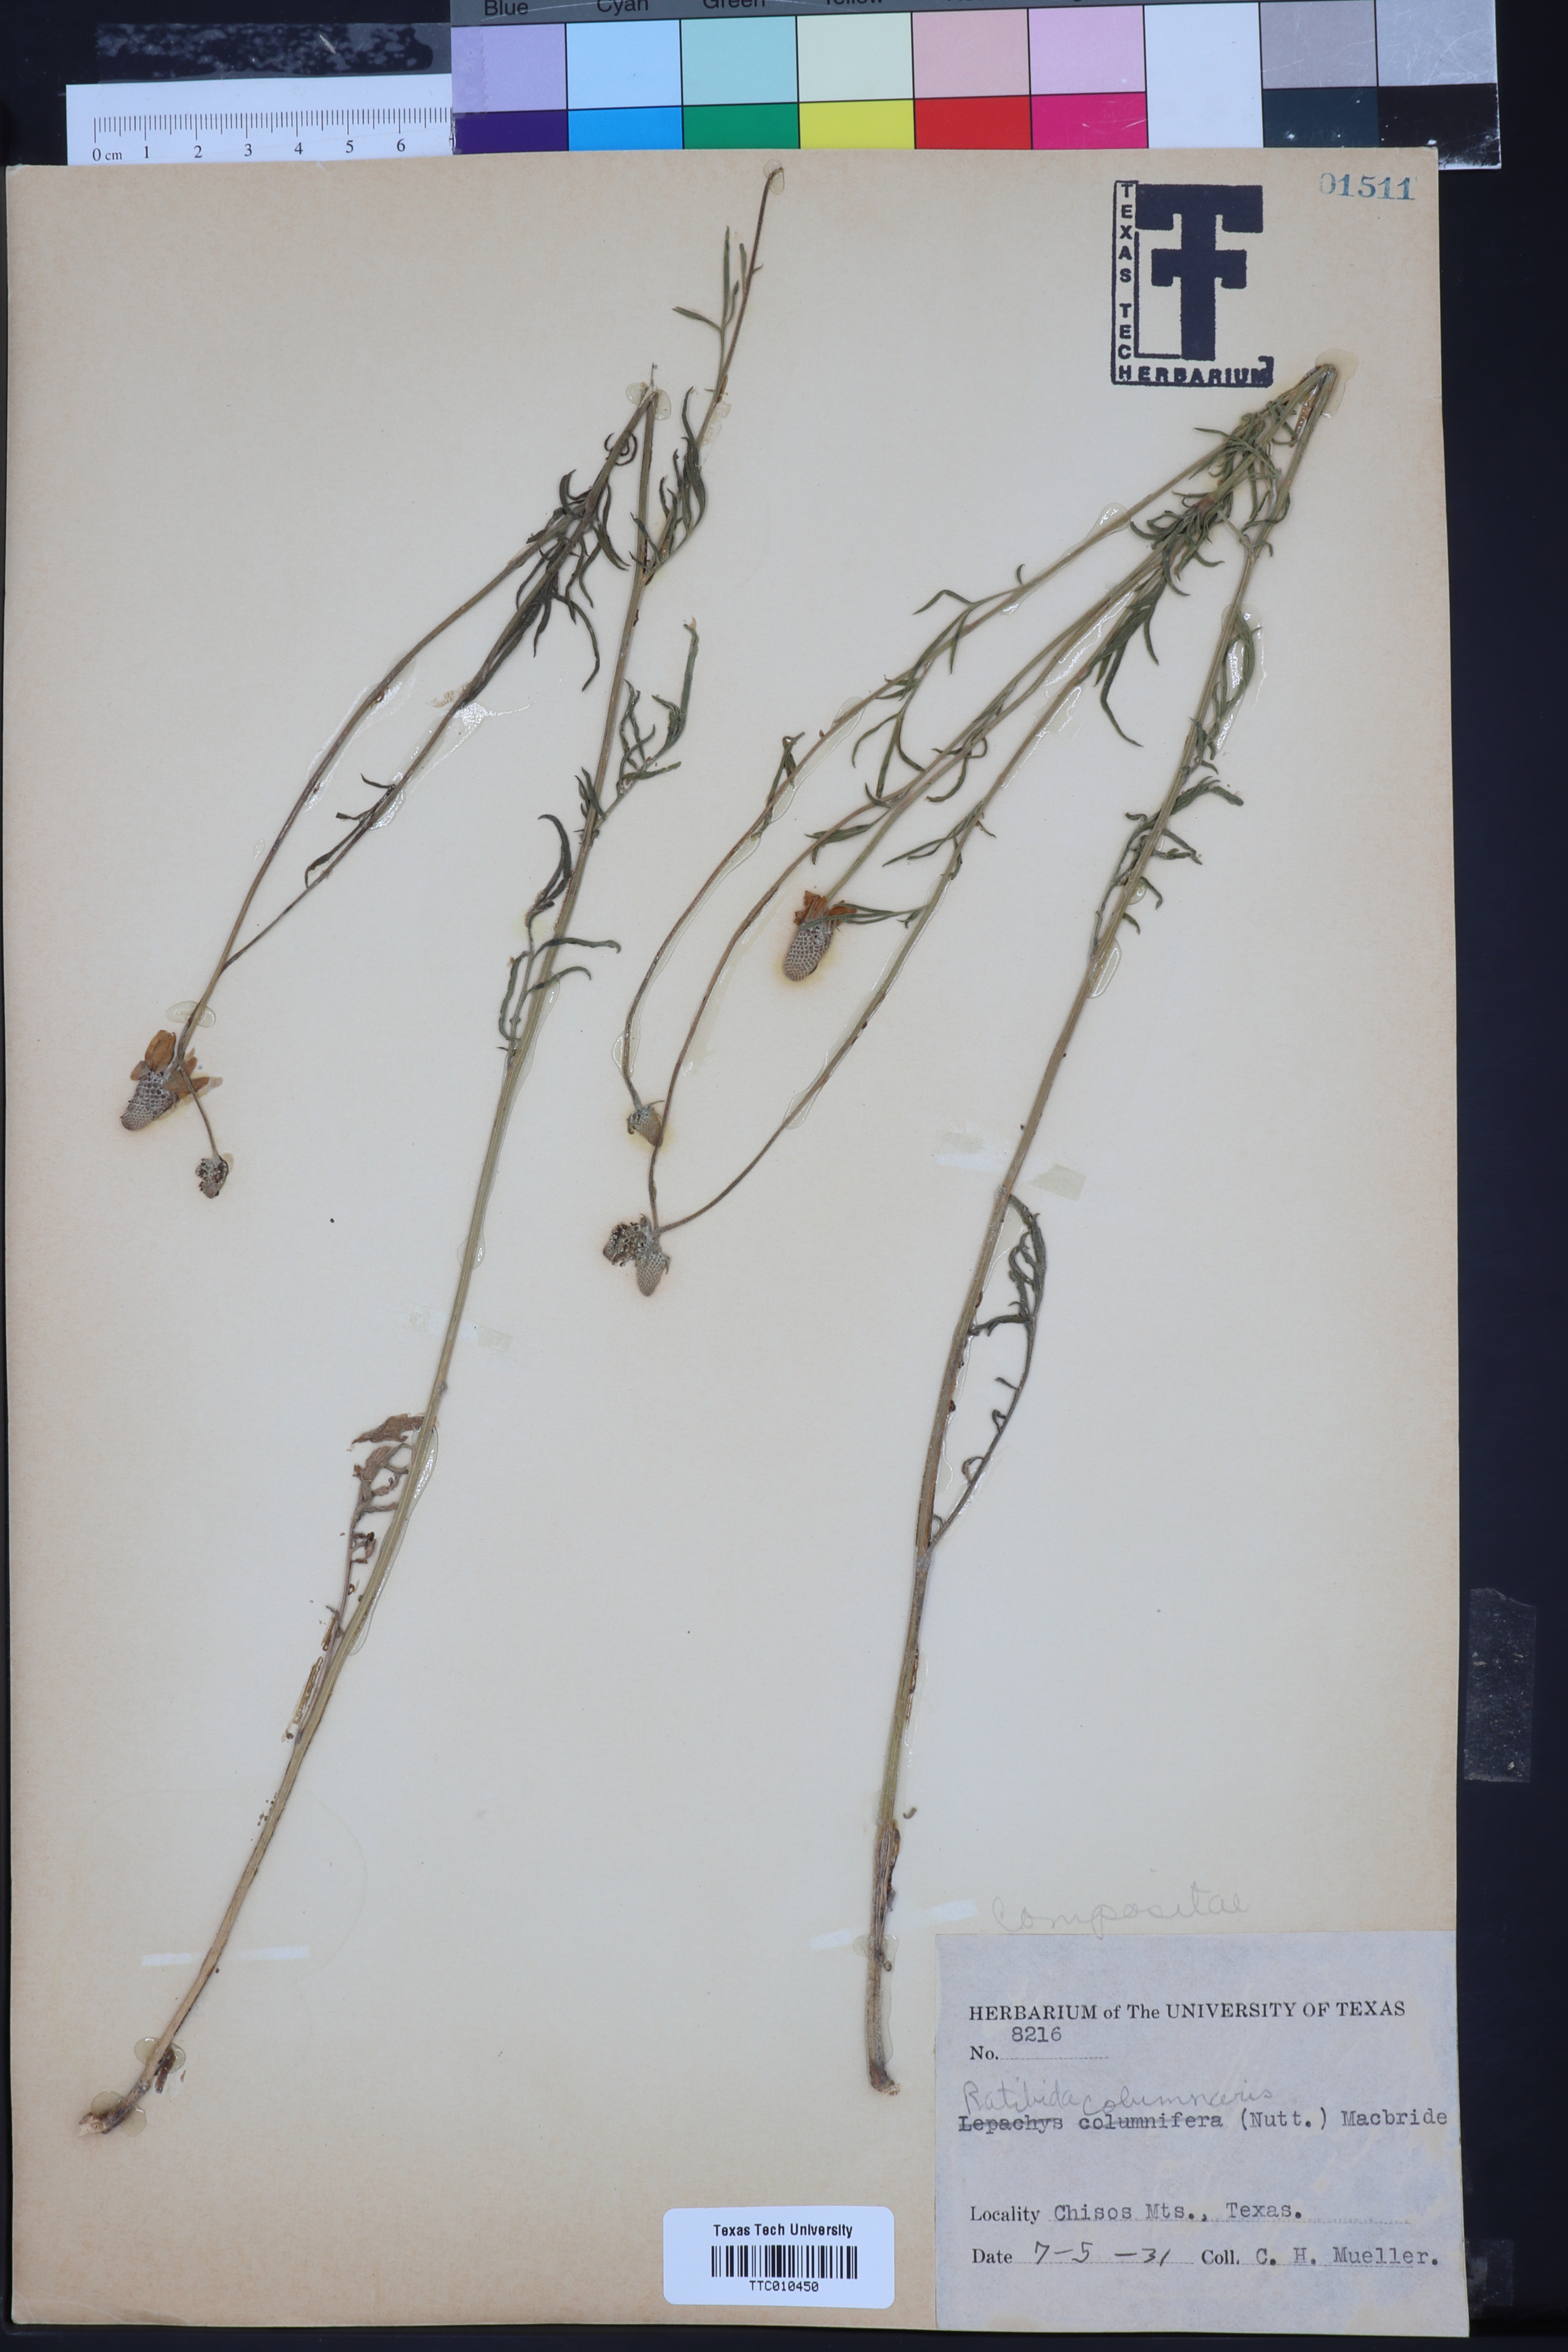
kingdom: Plantae
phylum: Tracheophyta
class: Magnoliopsida
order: Asterales
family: Asteraceae
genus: Ratibida
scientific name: Ratibida columnifera
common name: Prairie coneflower
